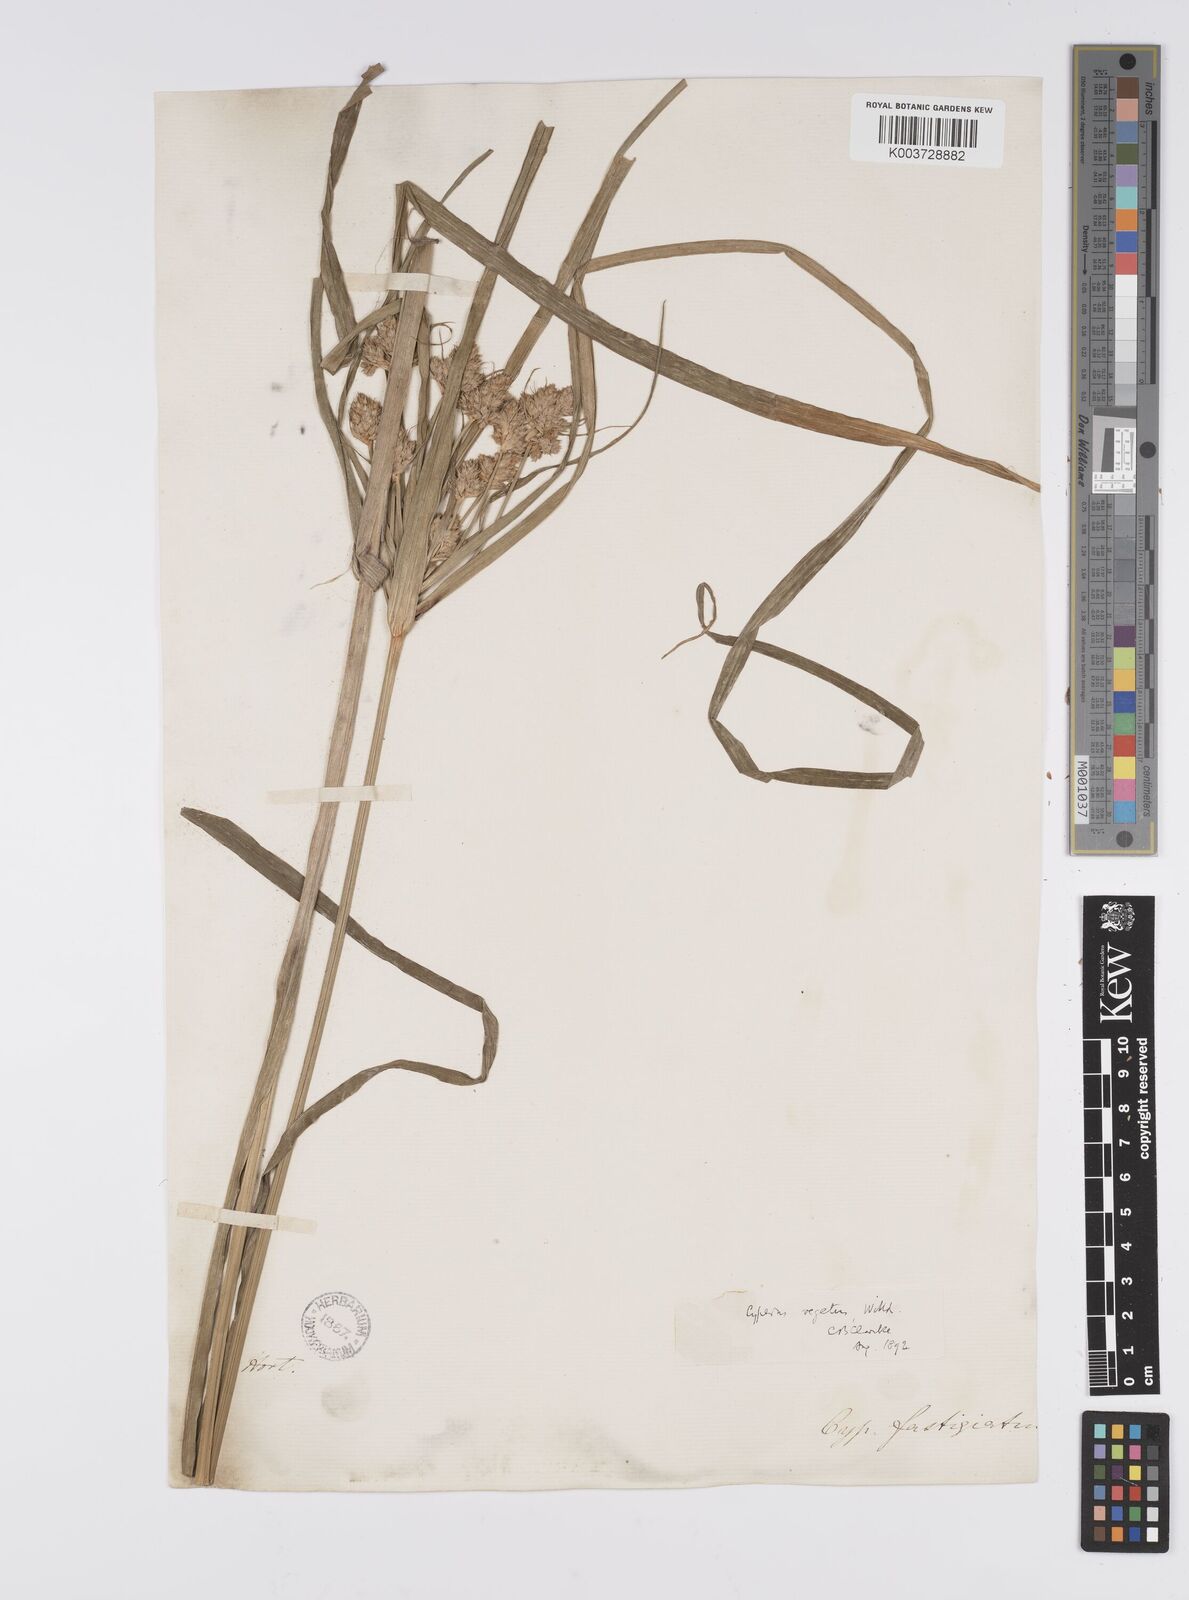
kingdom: Plantae
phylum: Tracheophyta
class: Liliopsida
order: Poales
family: Cyperaceae
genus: Cyperus
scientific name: Cyperus eragrostis
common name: Tall flatsedge
